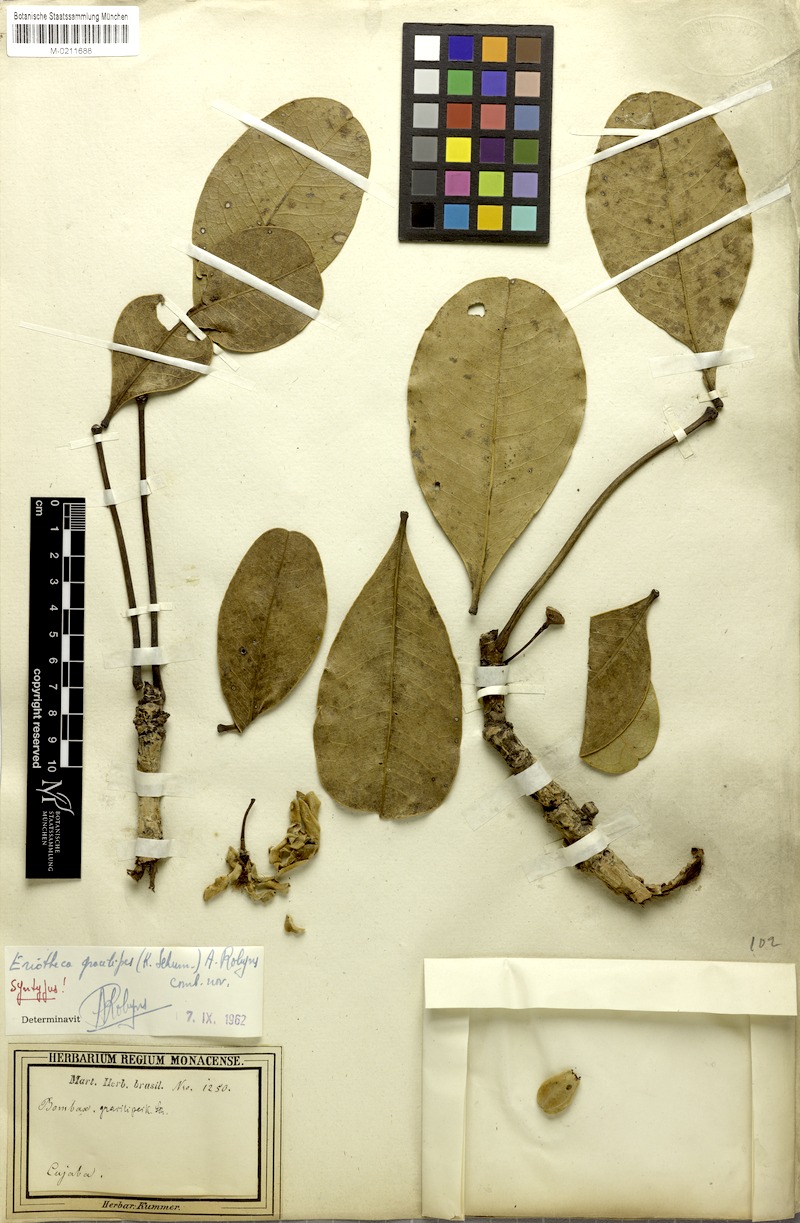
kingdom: Plantae
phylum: Tracheophyta
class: Magnoliopsida
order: Malvales
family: Malvaceae
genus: Eriotheca
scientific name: Eriotheca gracilipes
